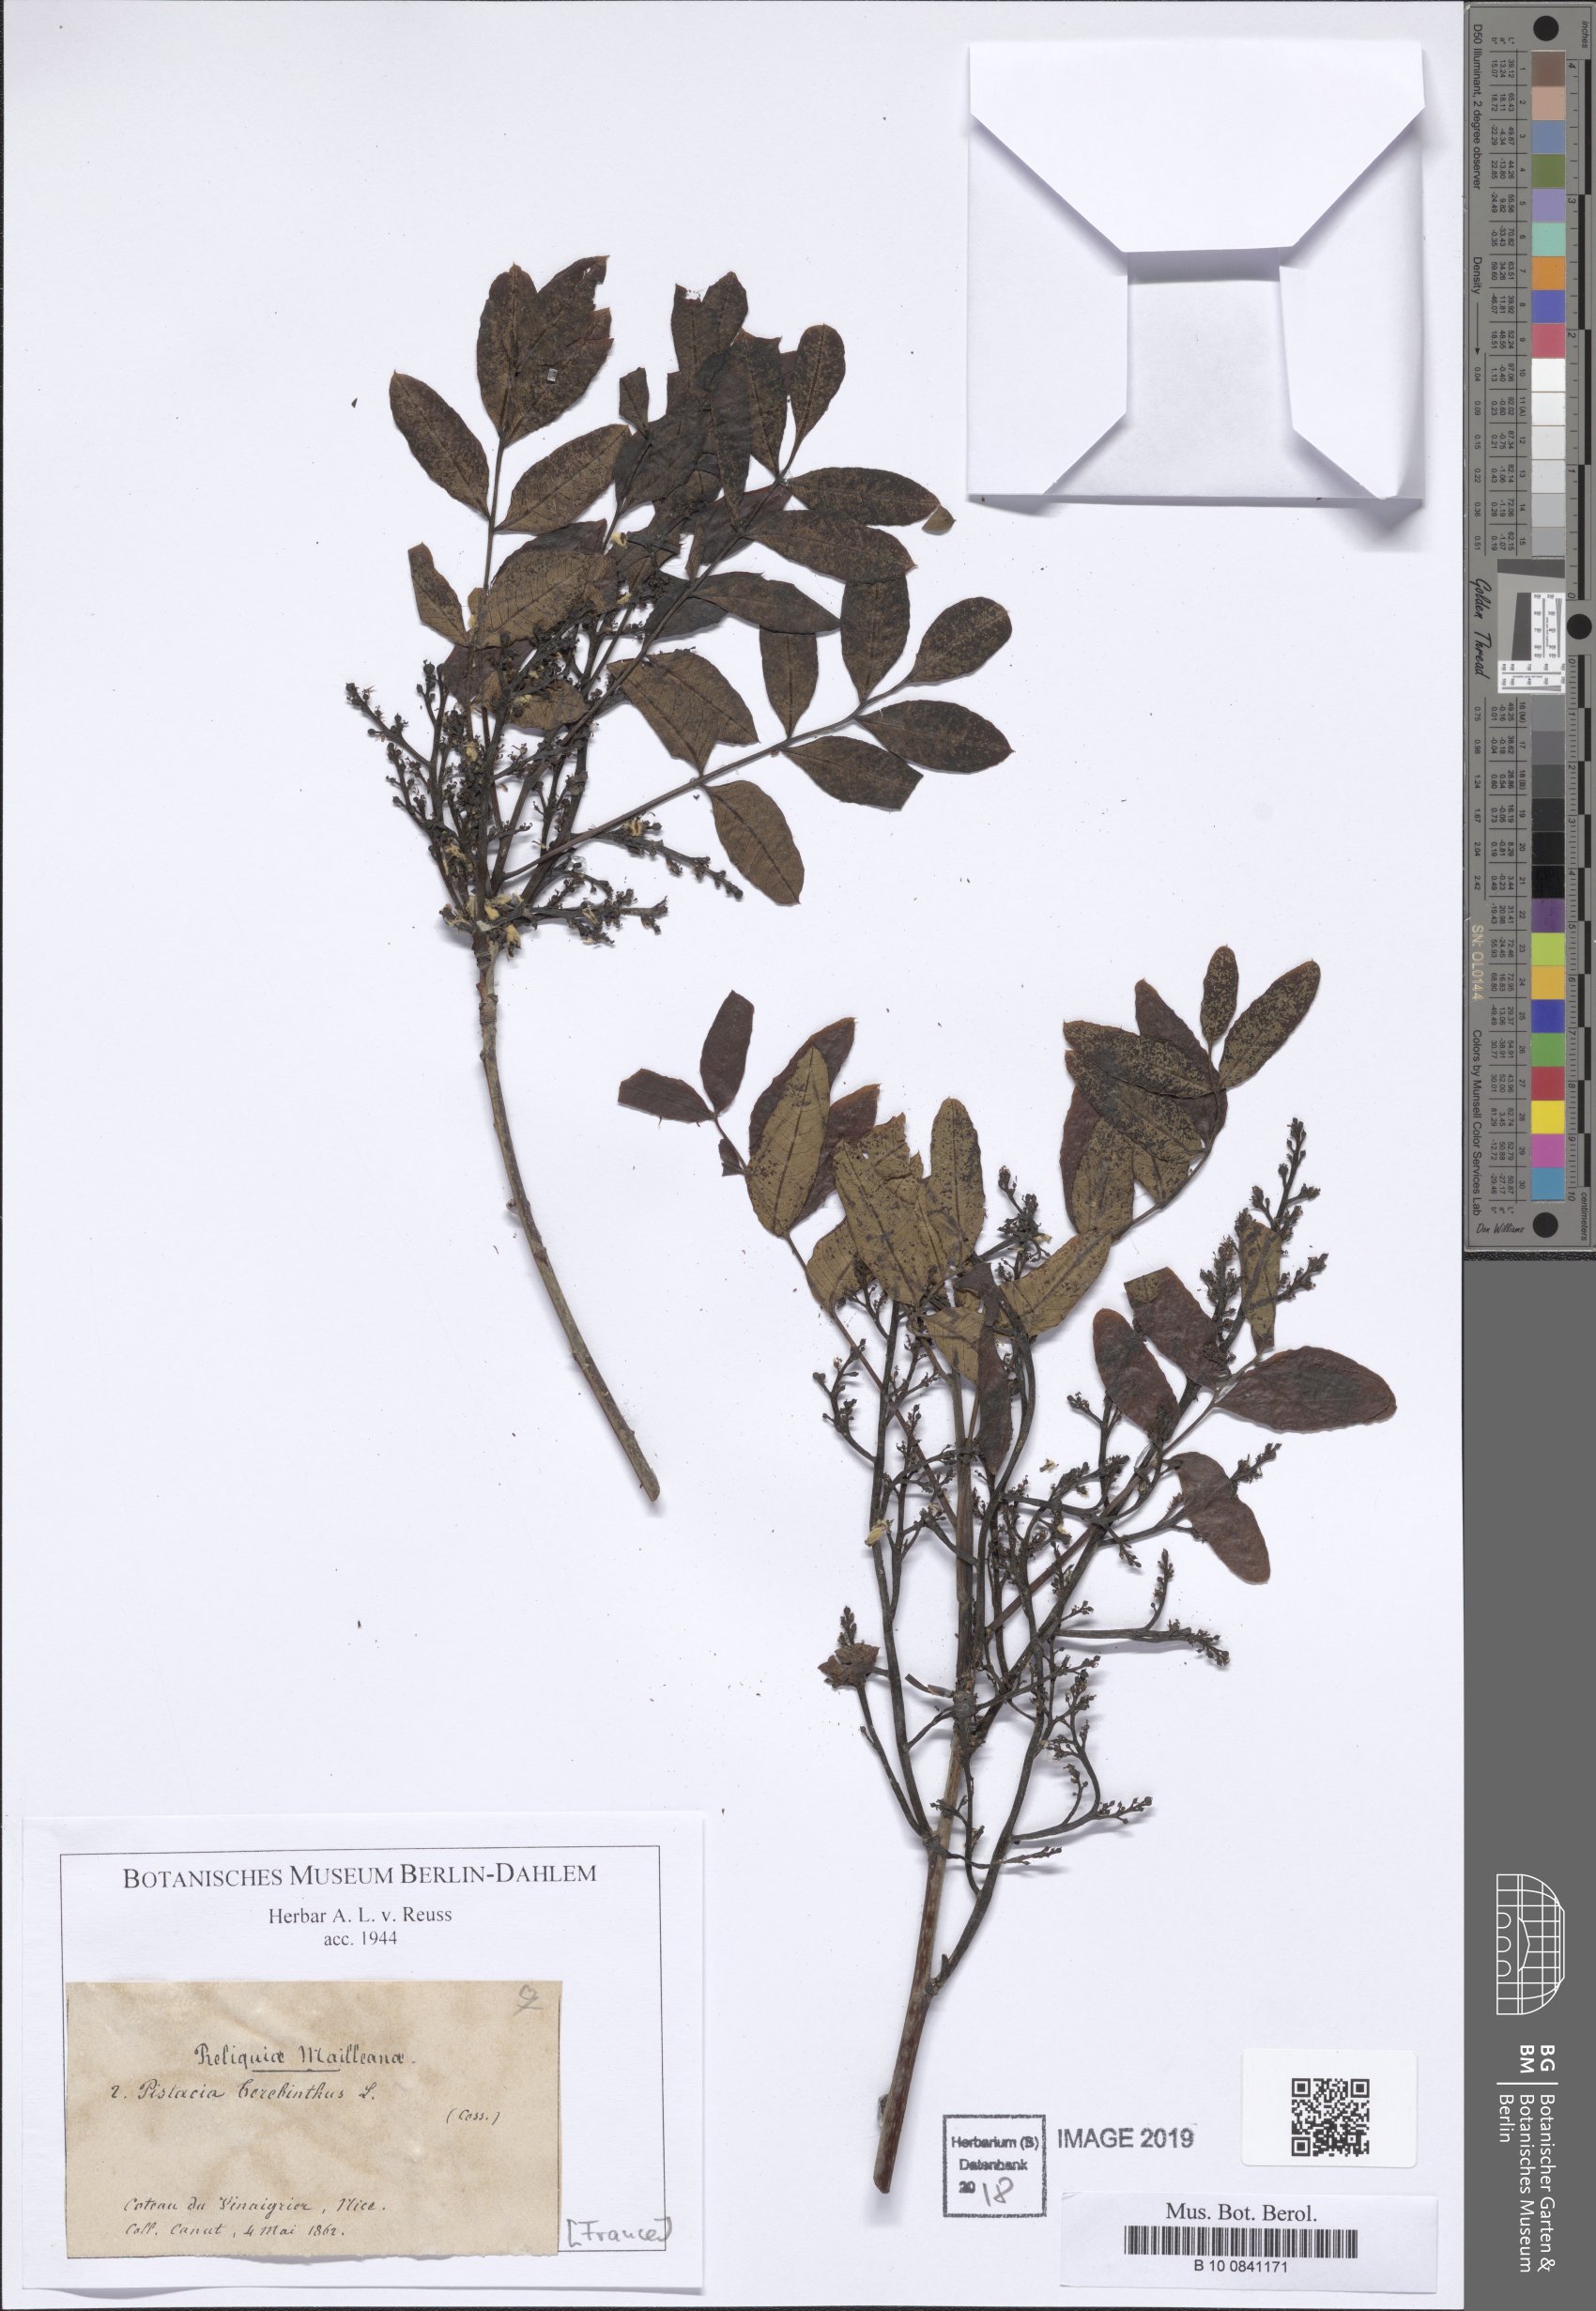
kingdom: Plantae
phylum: Tracheophyta
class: Magnoliopsida
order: Sapindales
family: Anacardiaceae
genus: Pistacia
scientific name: Pistacia terebinthus
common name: Terebinth
